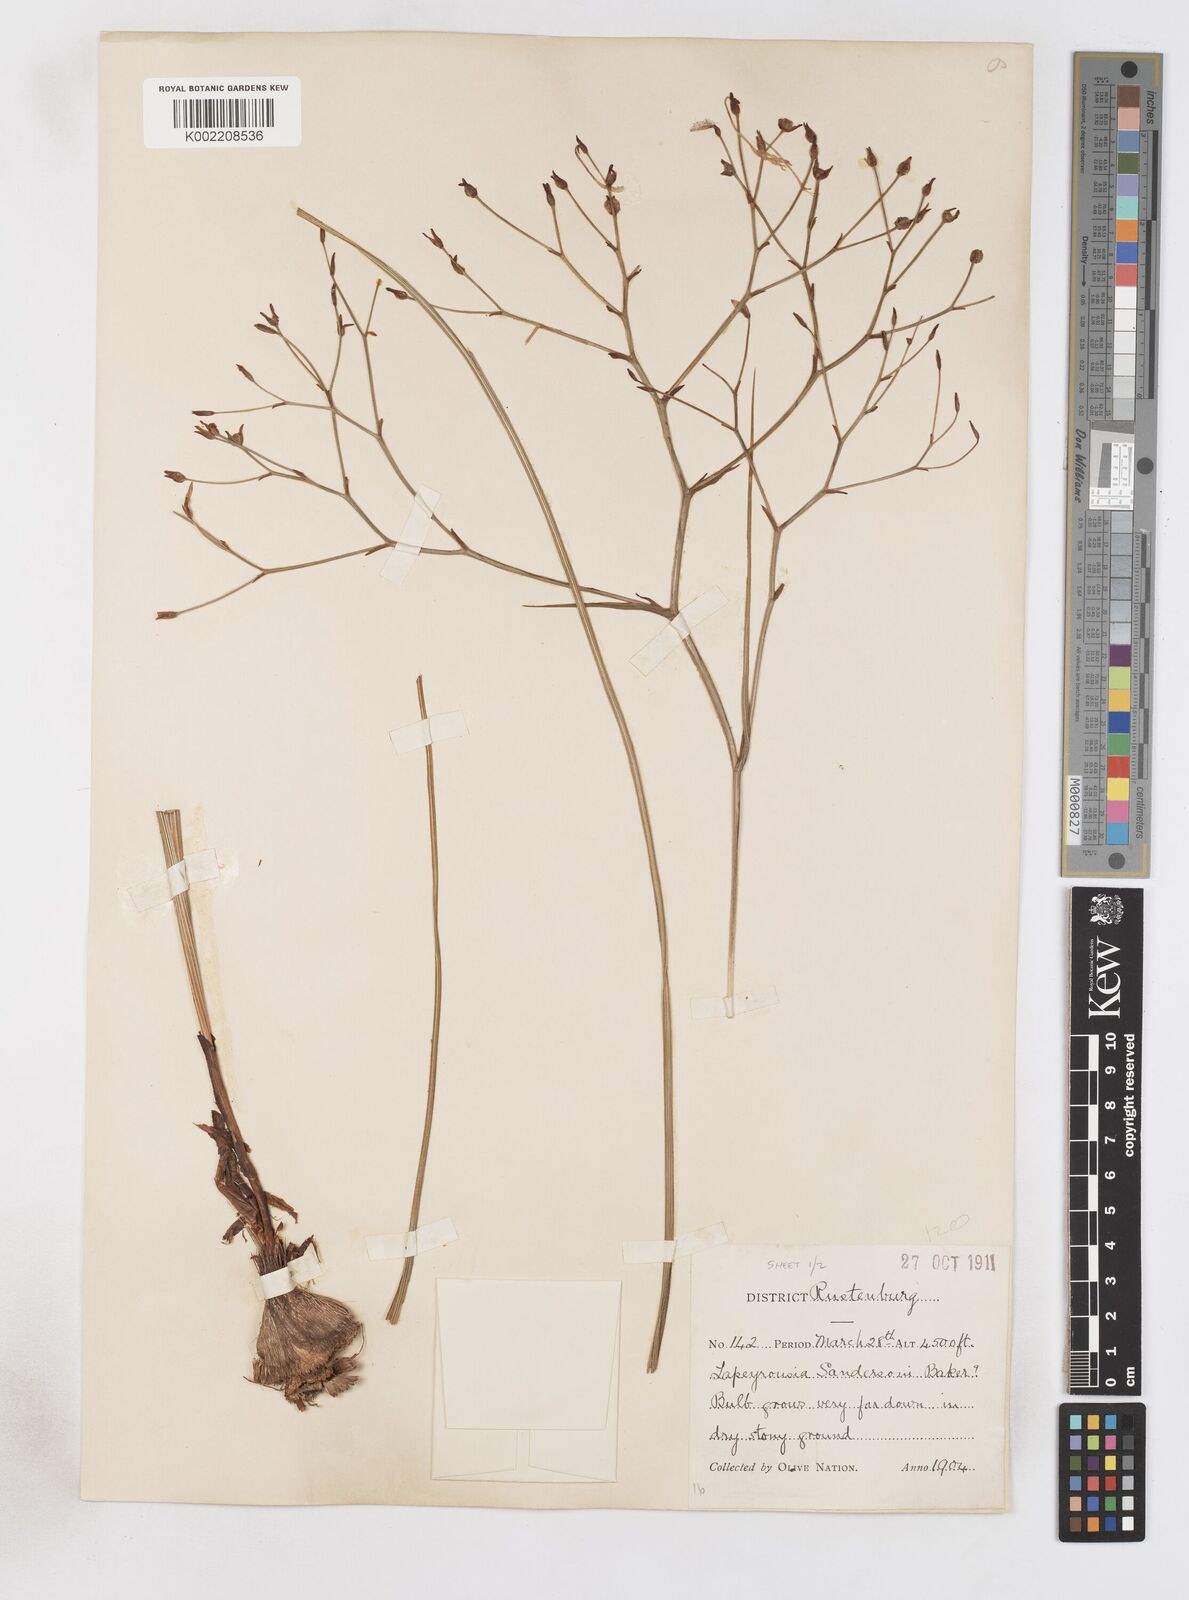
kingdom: Plantae
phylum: Tracheophyta
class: Liliopsida
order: Asparagales
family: Iridaceae
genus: Afrosolen
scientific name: Afrosolen sandersonii
